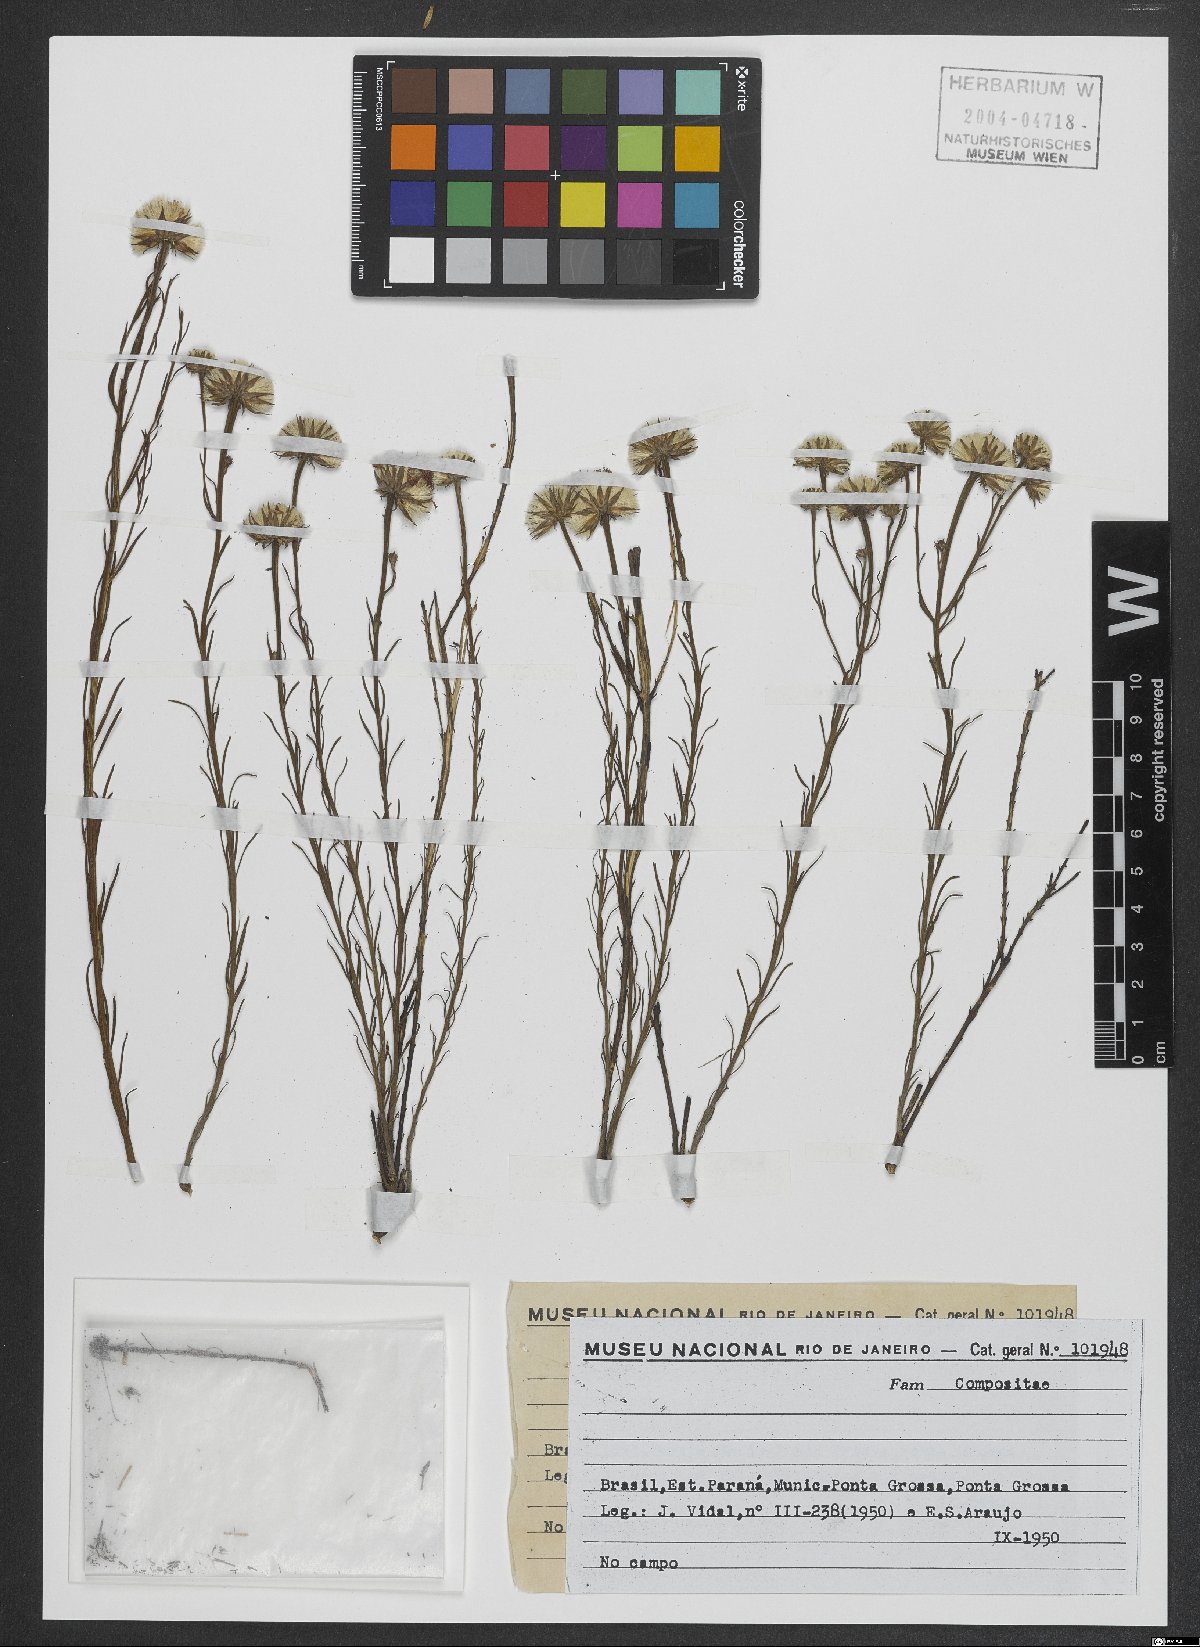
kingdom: Plantae
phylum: Tracheophyta
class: Magnoliopsida
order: Asterales
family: Asteraceae
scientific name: Asteraceae
